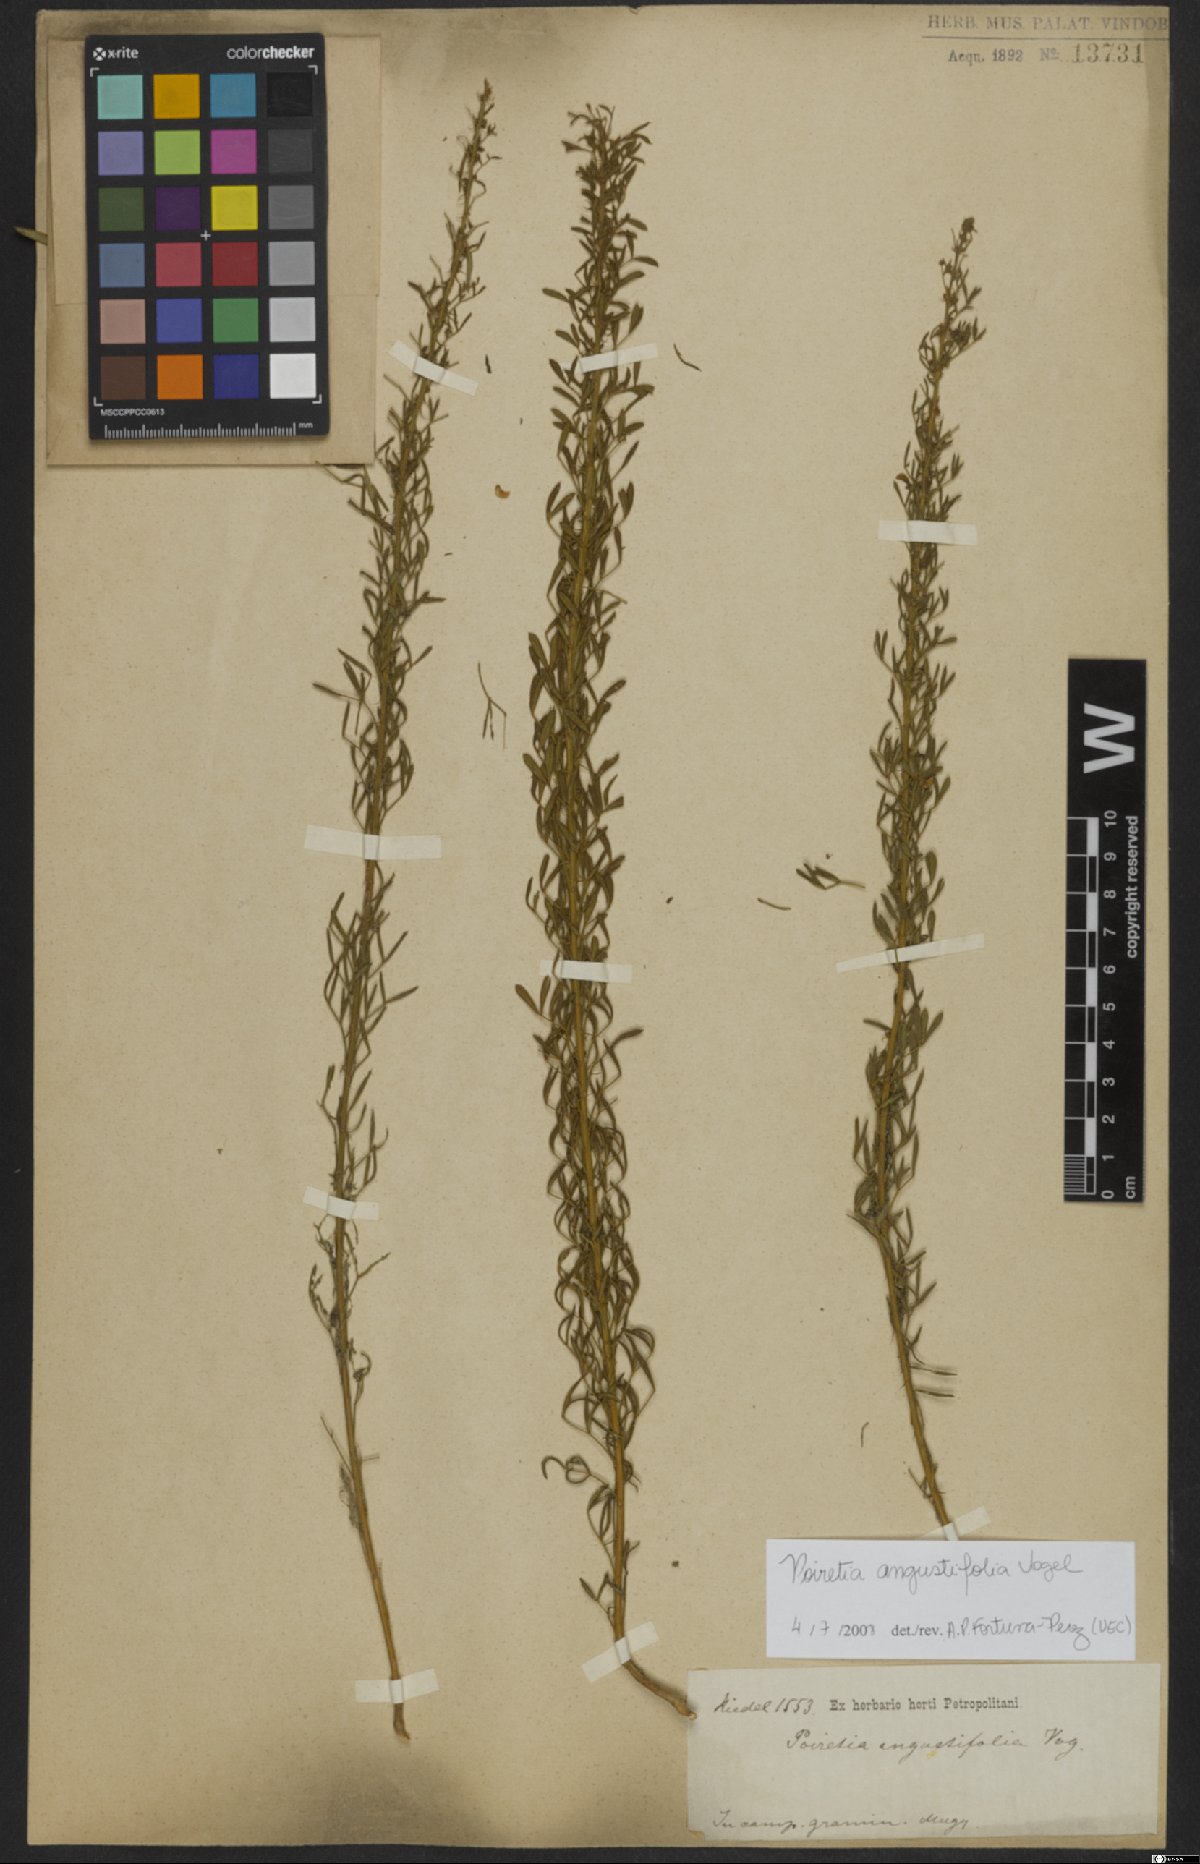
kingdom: Plantae
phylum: Tracheophyta
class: Magnoliopsida
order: Fabales
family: Fabaceae
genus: Poiretia
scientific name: Poiretia angustifolia
